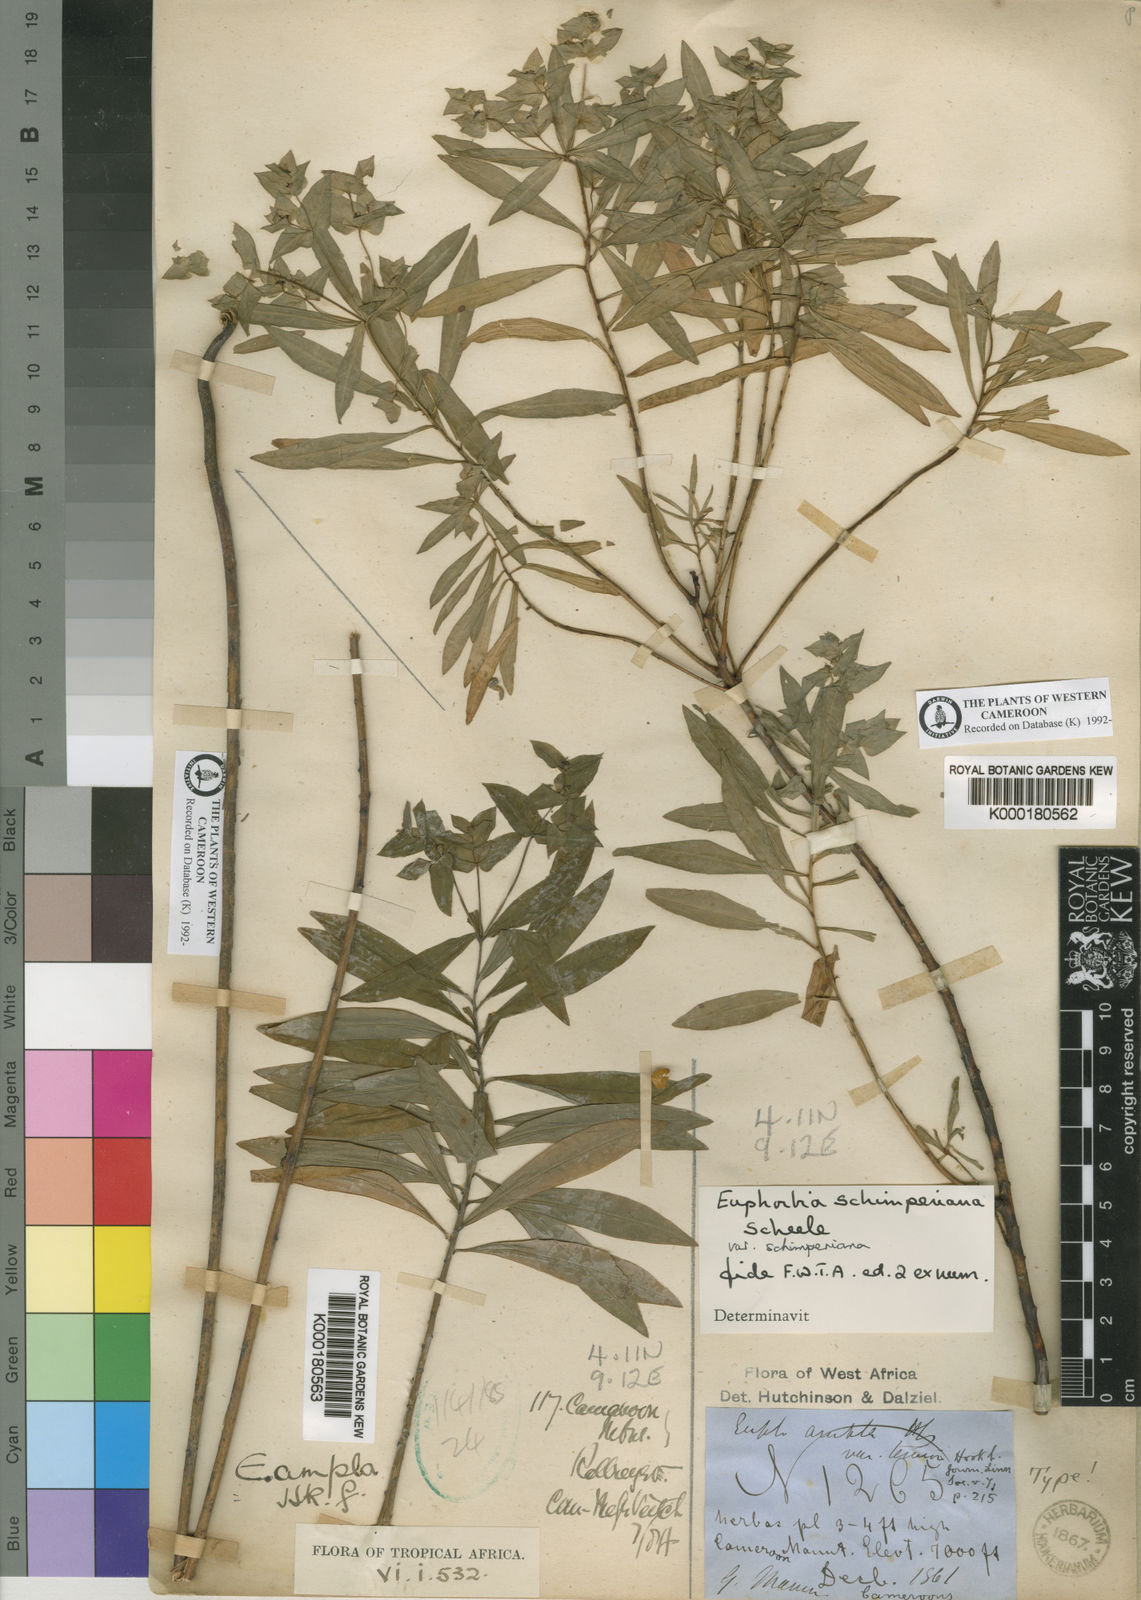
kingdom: Plantae
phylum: Tracheophyta
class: Magnoliopsida
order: Malpighiales
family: Euphorbiaceae
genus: Euphorbia
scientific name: Euphorbia schimperiana
